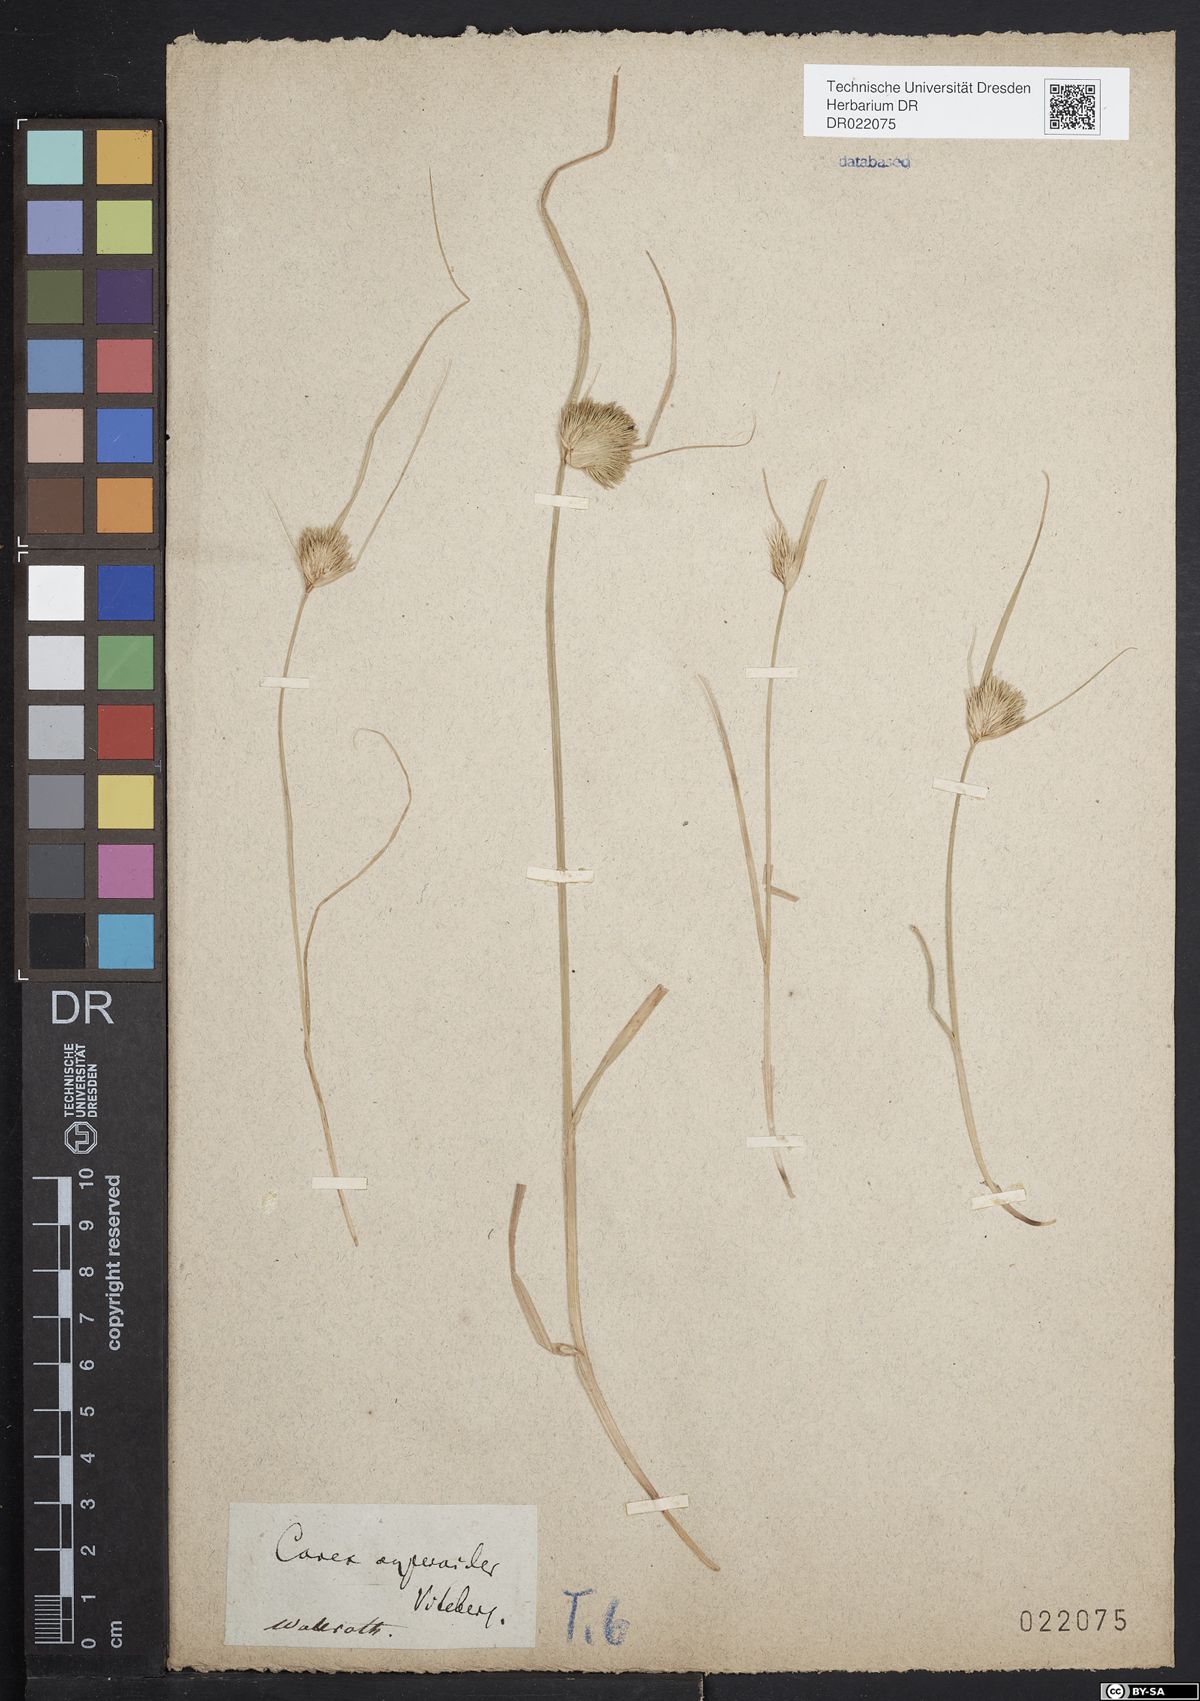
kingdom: Plantae
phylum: Tracheophyta
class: Liliopsida
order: Poales
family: Cyperaceae
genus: Carex
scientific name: Carex bohemica
